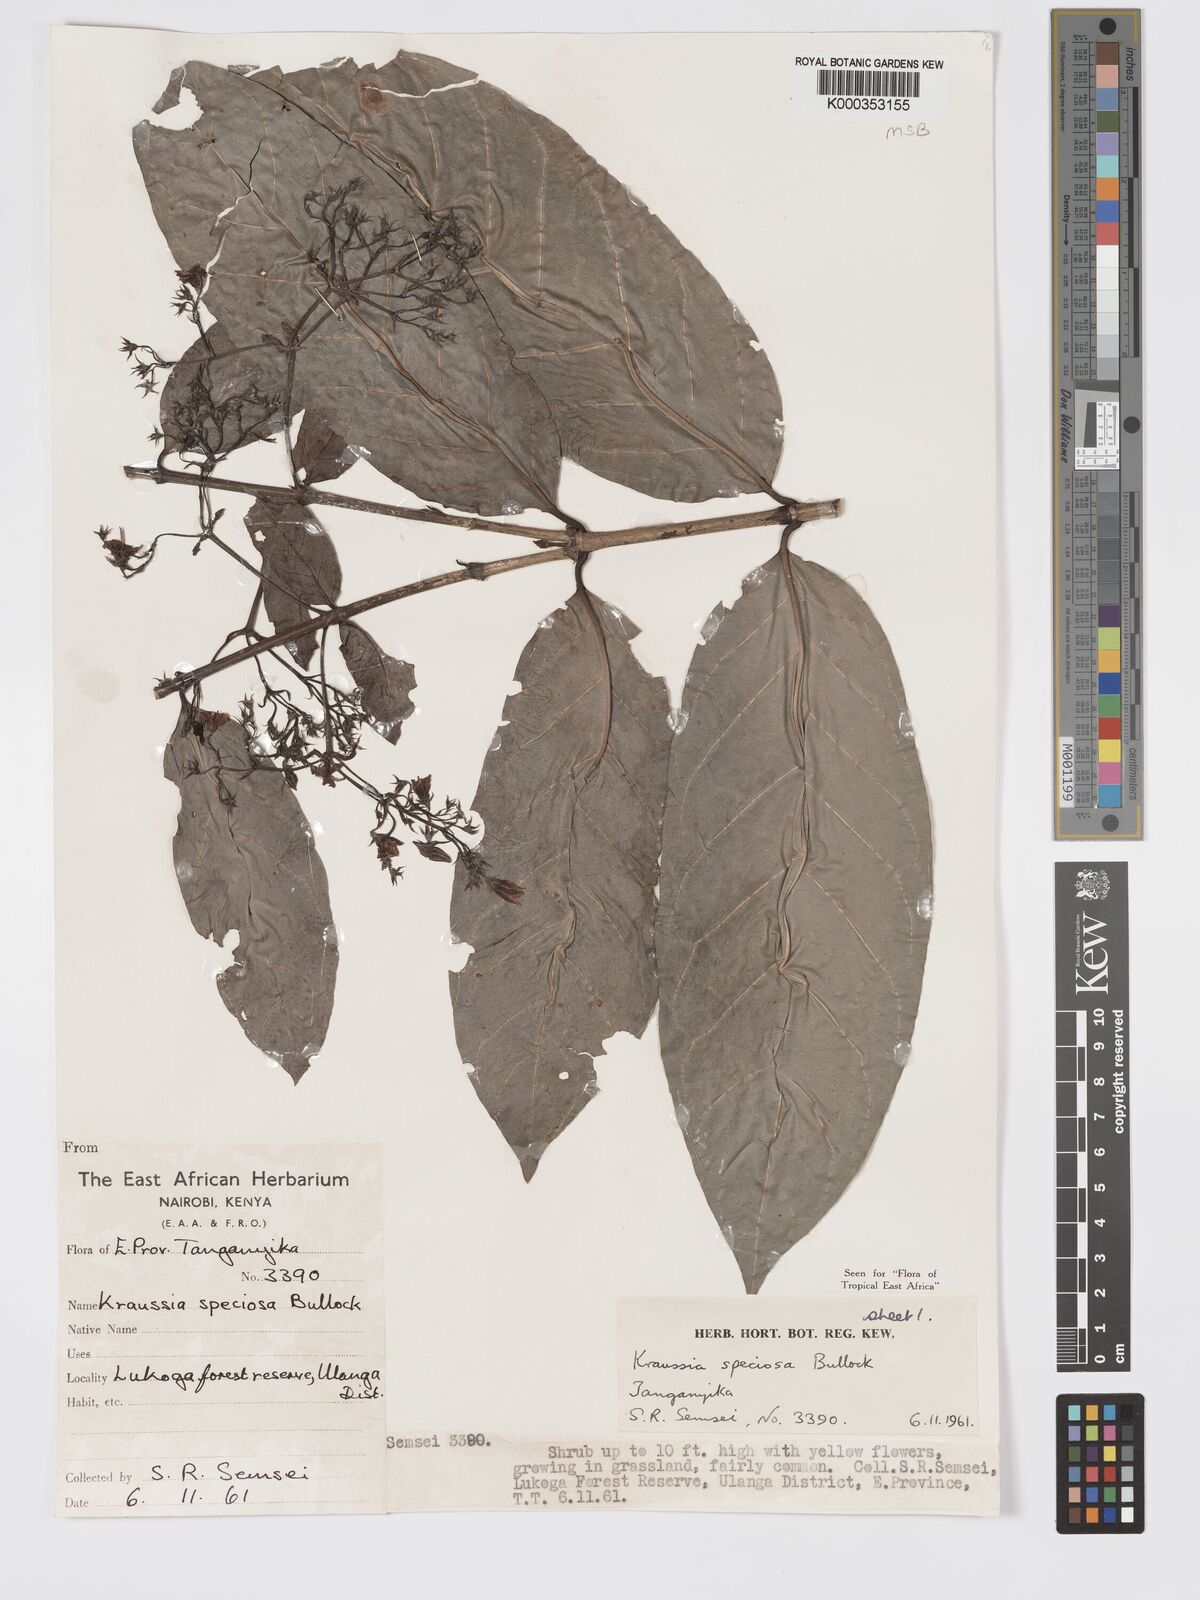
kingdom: Plantae
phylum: Tracheophyta
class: Magnoliopsida
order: Gentianales
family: Rubiaceae
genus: Kraussia
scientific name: Kraussia speciosa
